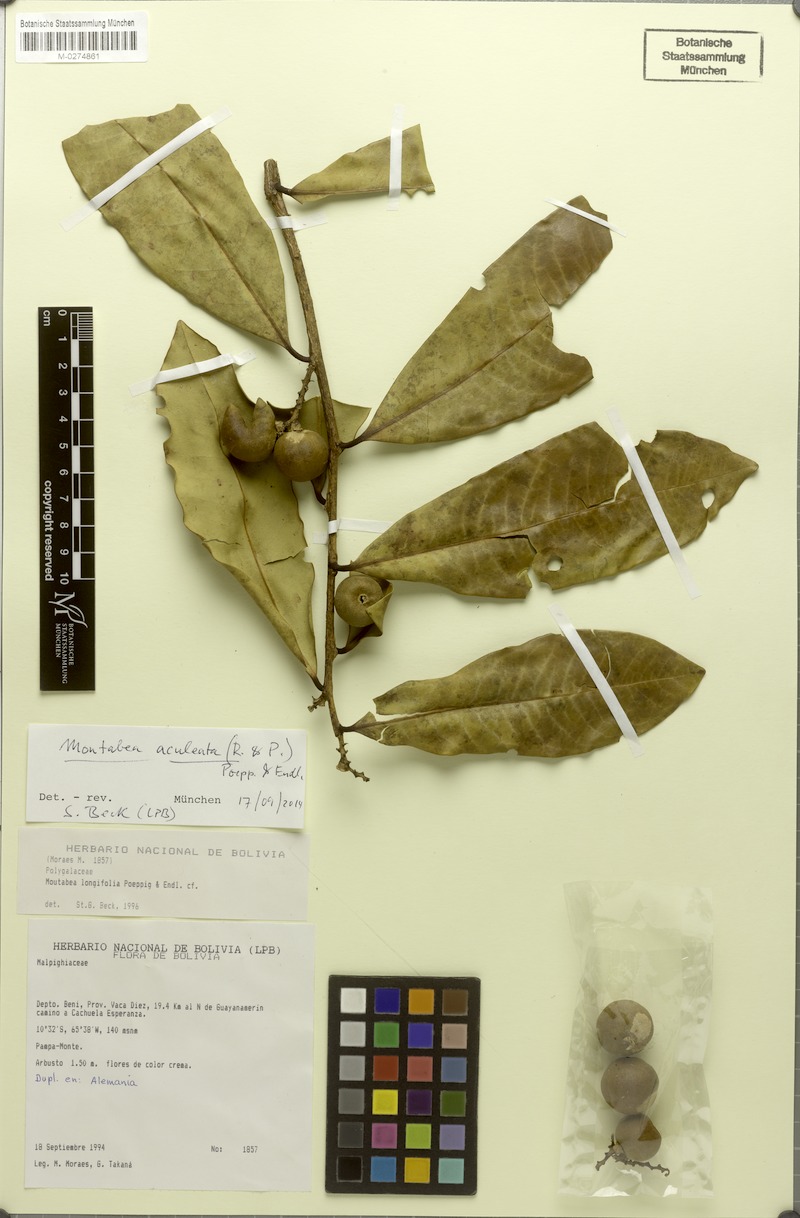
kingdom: Plantae
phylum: Tracheophyta
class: Magnoliopsida
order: Malpighiales
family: Malpighiaceae
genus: Pterandra
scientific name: Pterandra hirsuta
